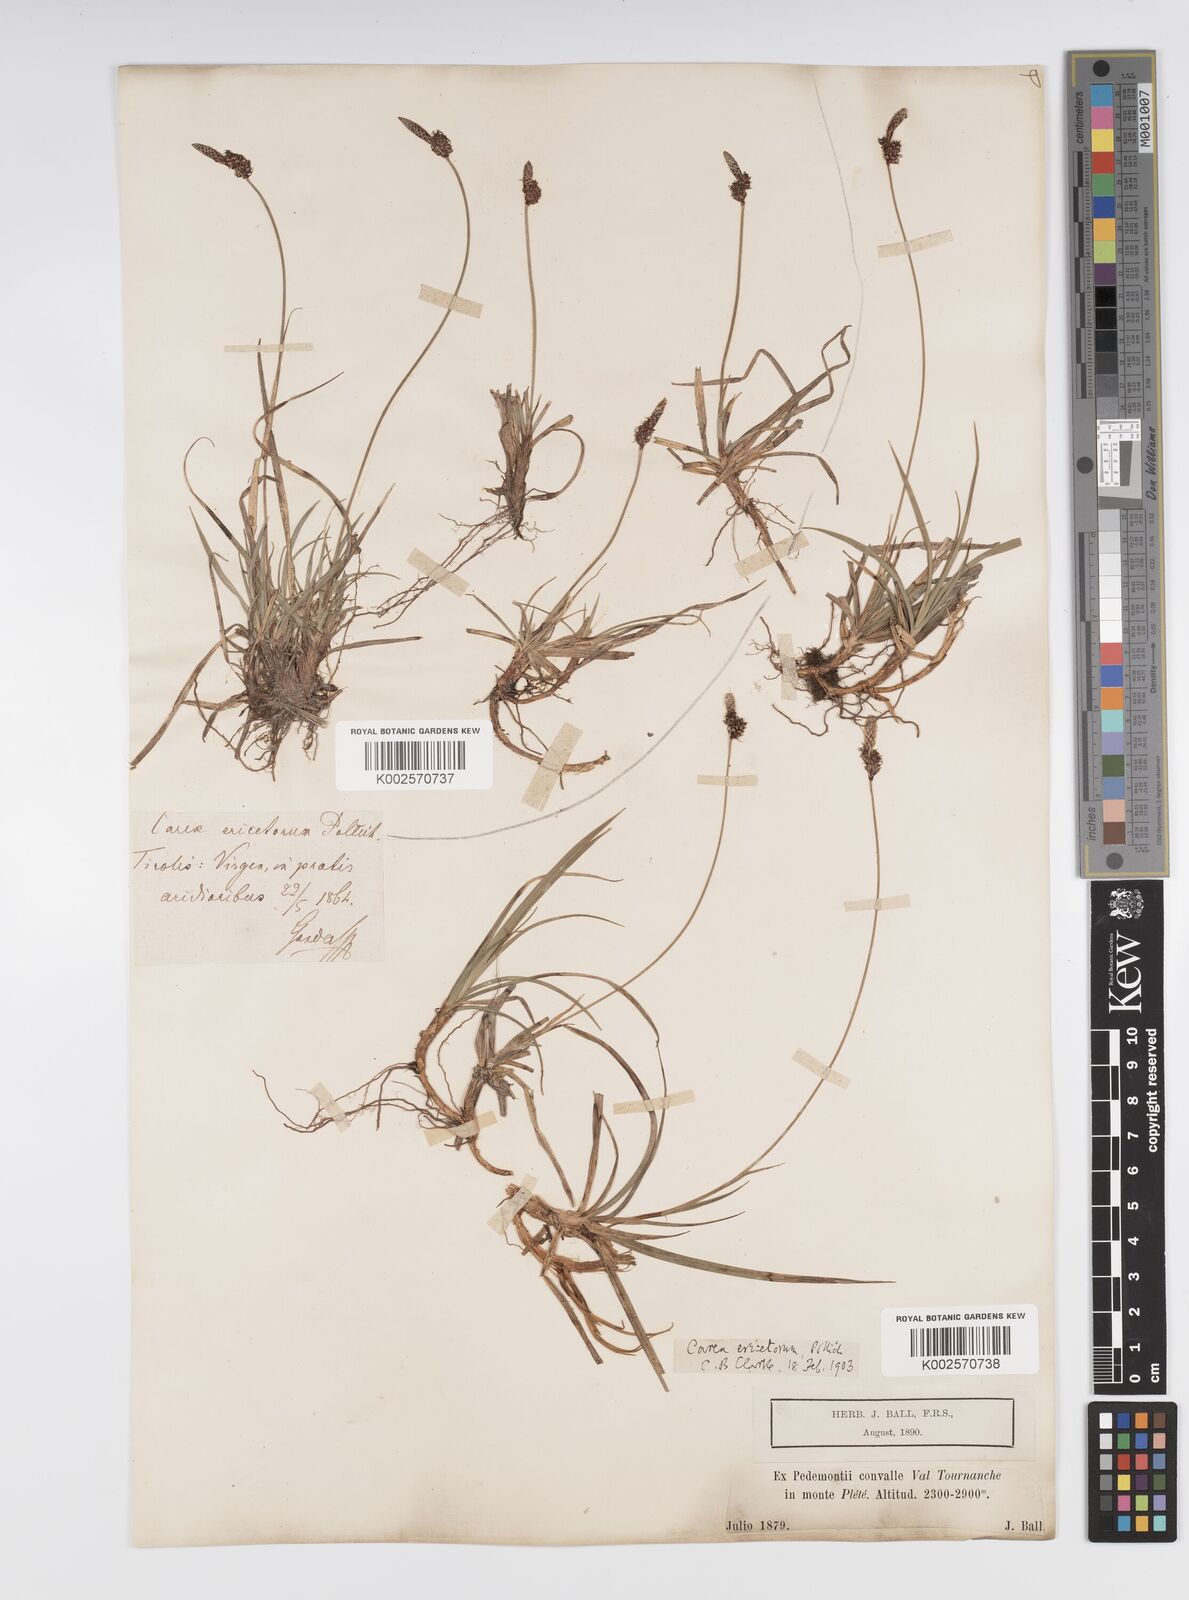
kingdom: Plantae
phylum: Tracheophyta
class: Liliopsida
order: Poales
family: Cyperaceae
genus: Carex
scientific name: Carex ericetorum
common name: Rare spring-sedge
